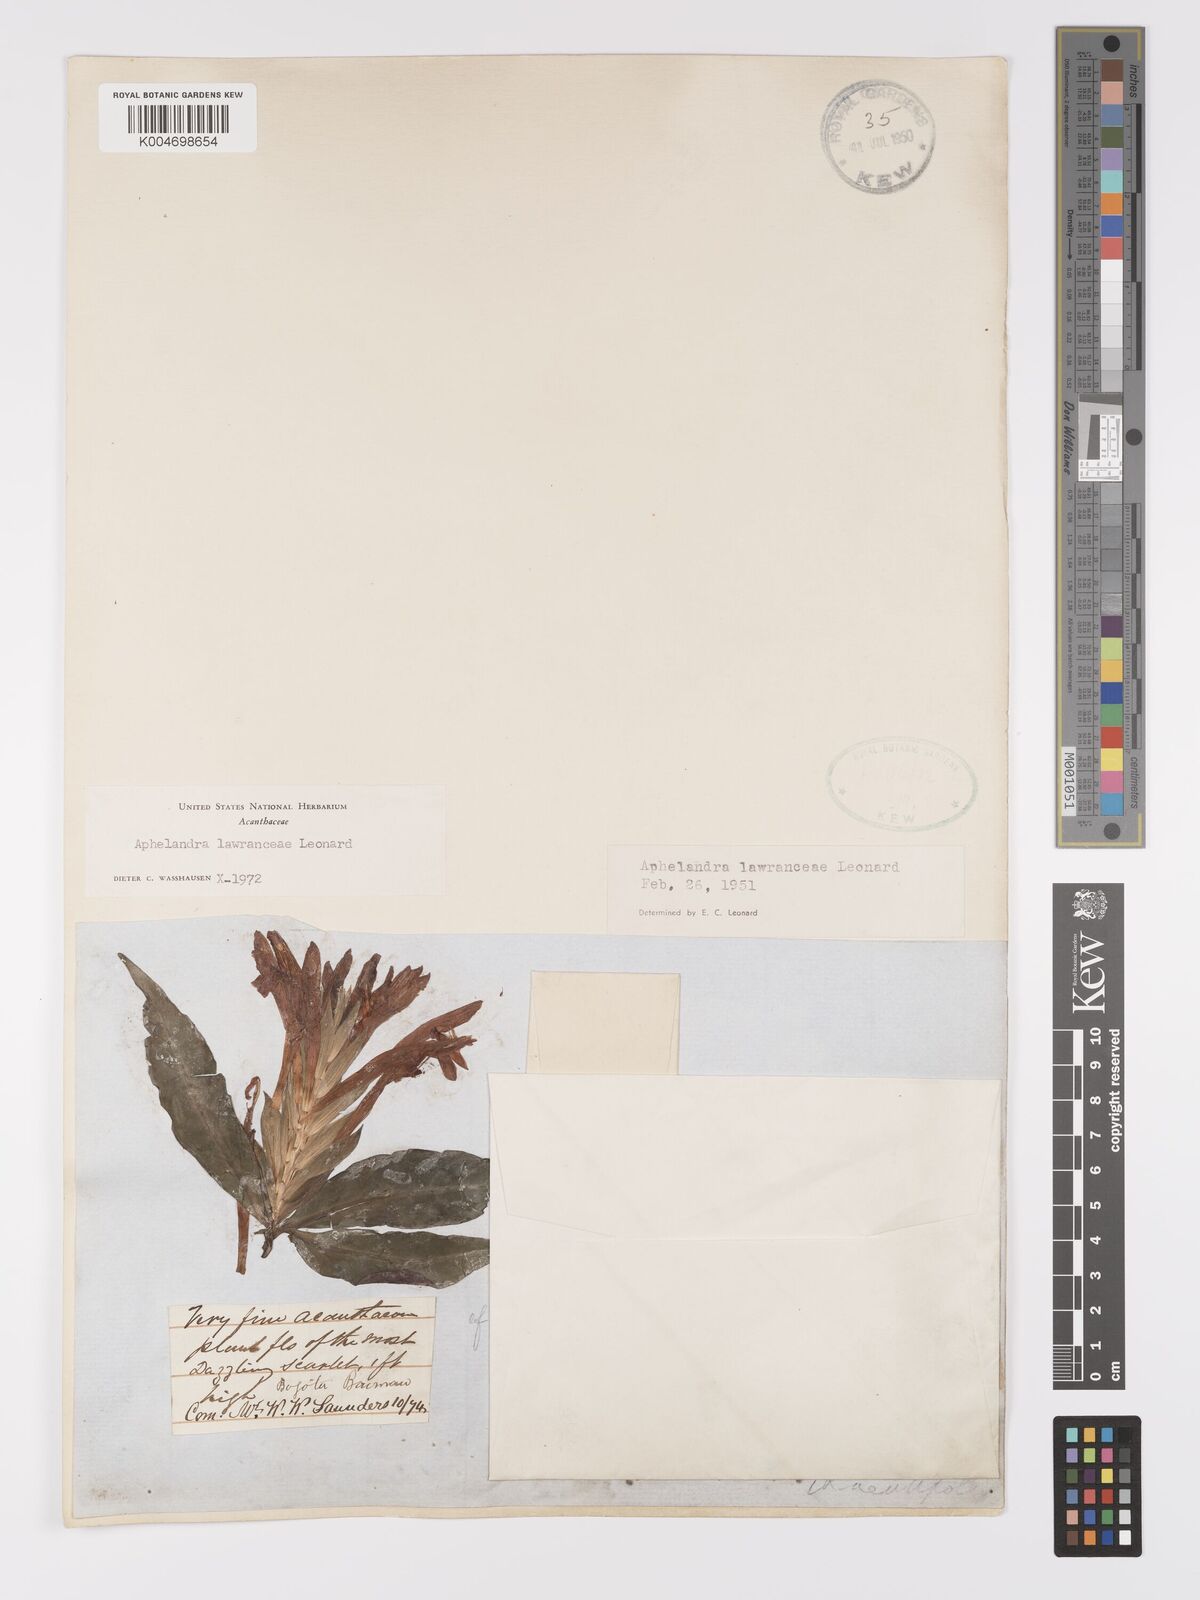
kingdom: Plantae
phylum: Tracheophyta
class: Magnoliopsida
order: Lamiales
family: Acanthaceae
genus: Aphelandra
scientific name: Aphelandra lawranceae
